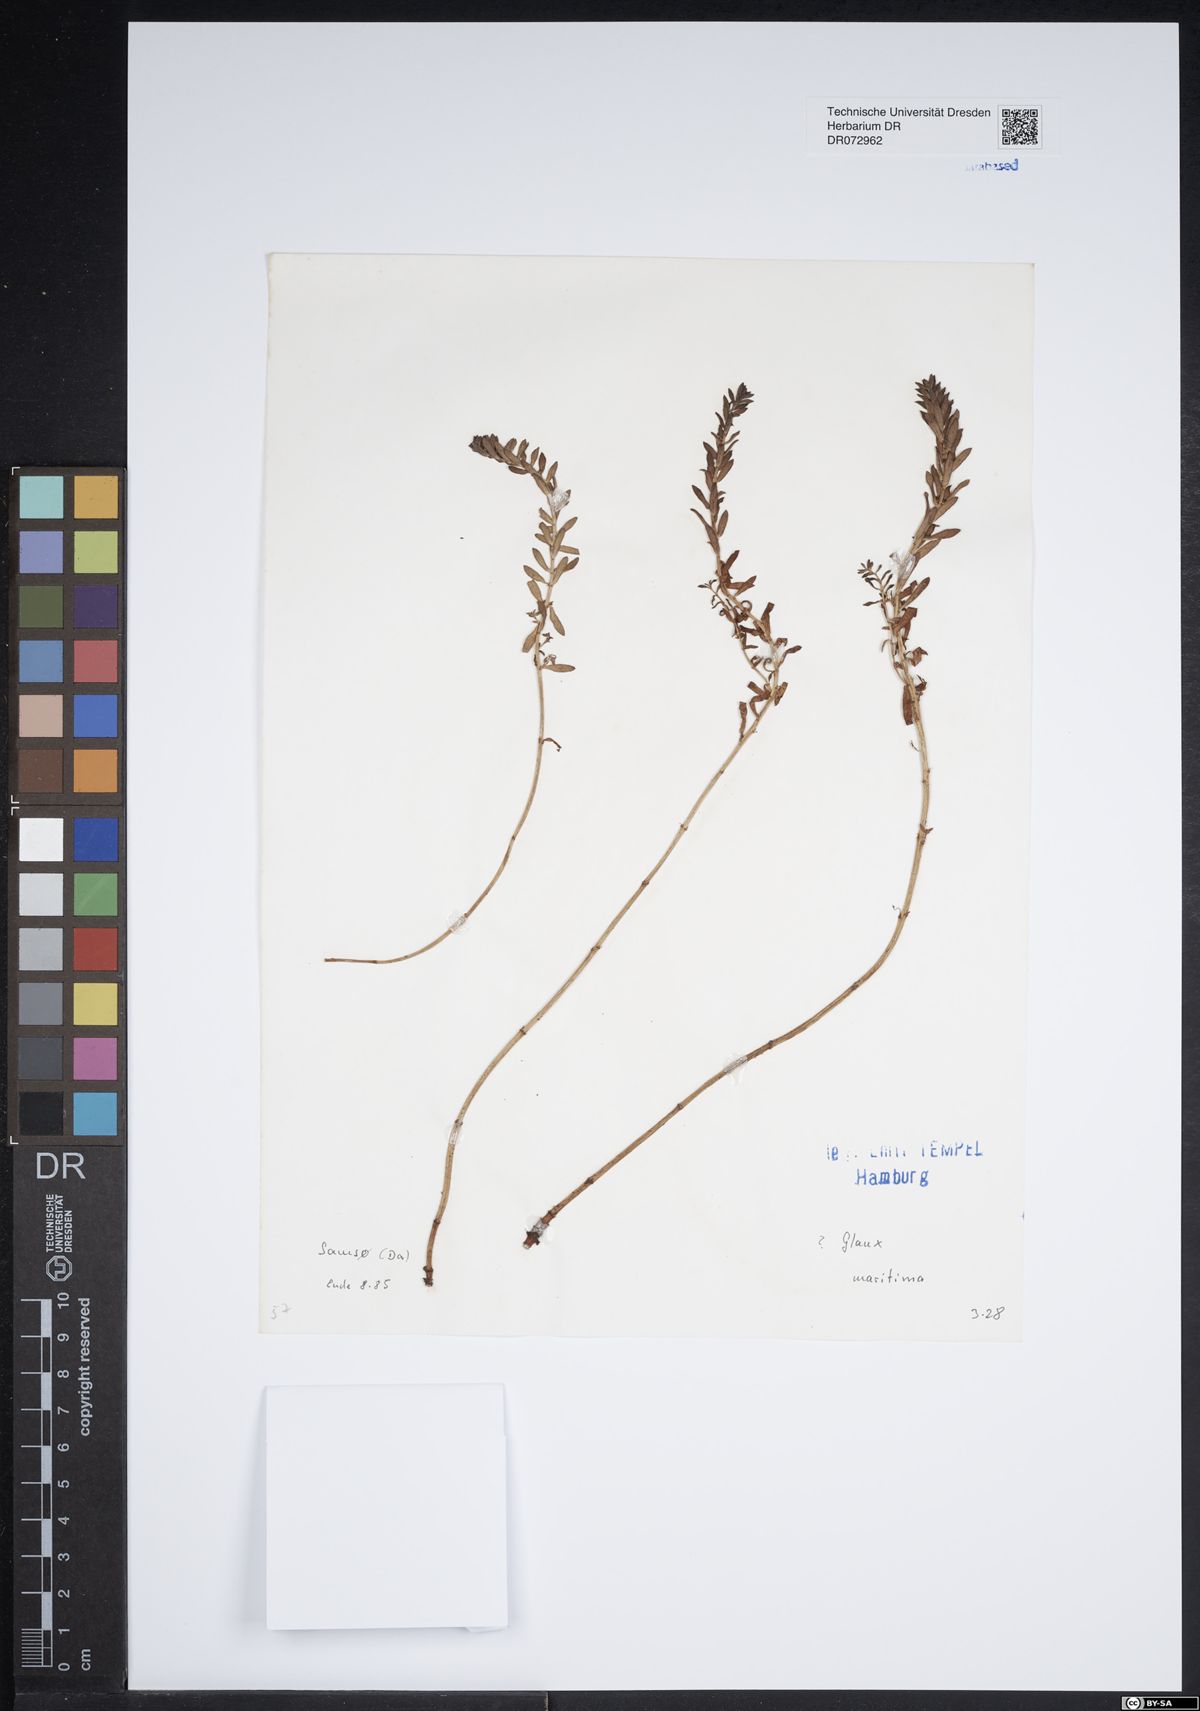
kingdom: Plantae
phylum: Tracheophyta
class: Magnoliopsida
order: Ericales
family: Primulaceae
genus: Lysimachia
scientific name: Lysimachia maritima
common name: Sea milkwort
